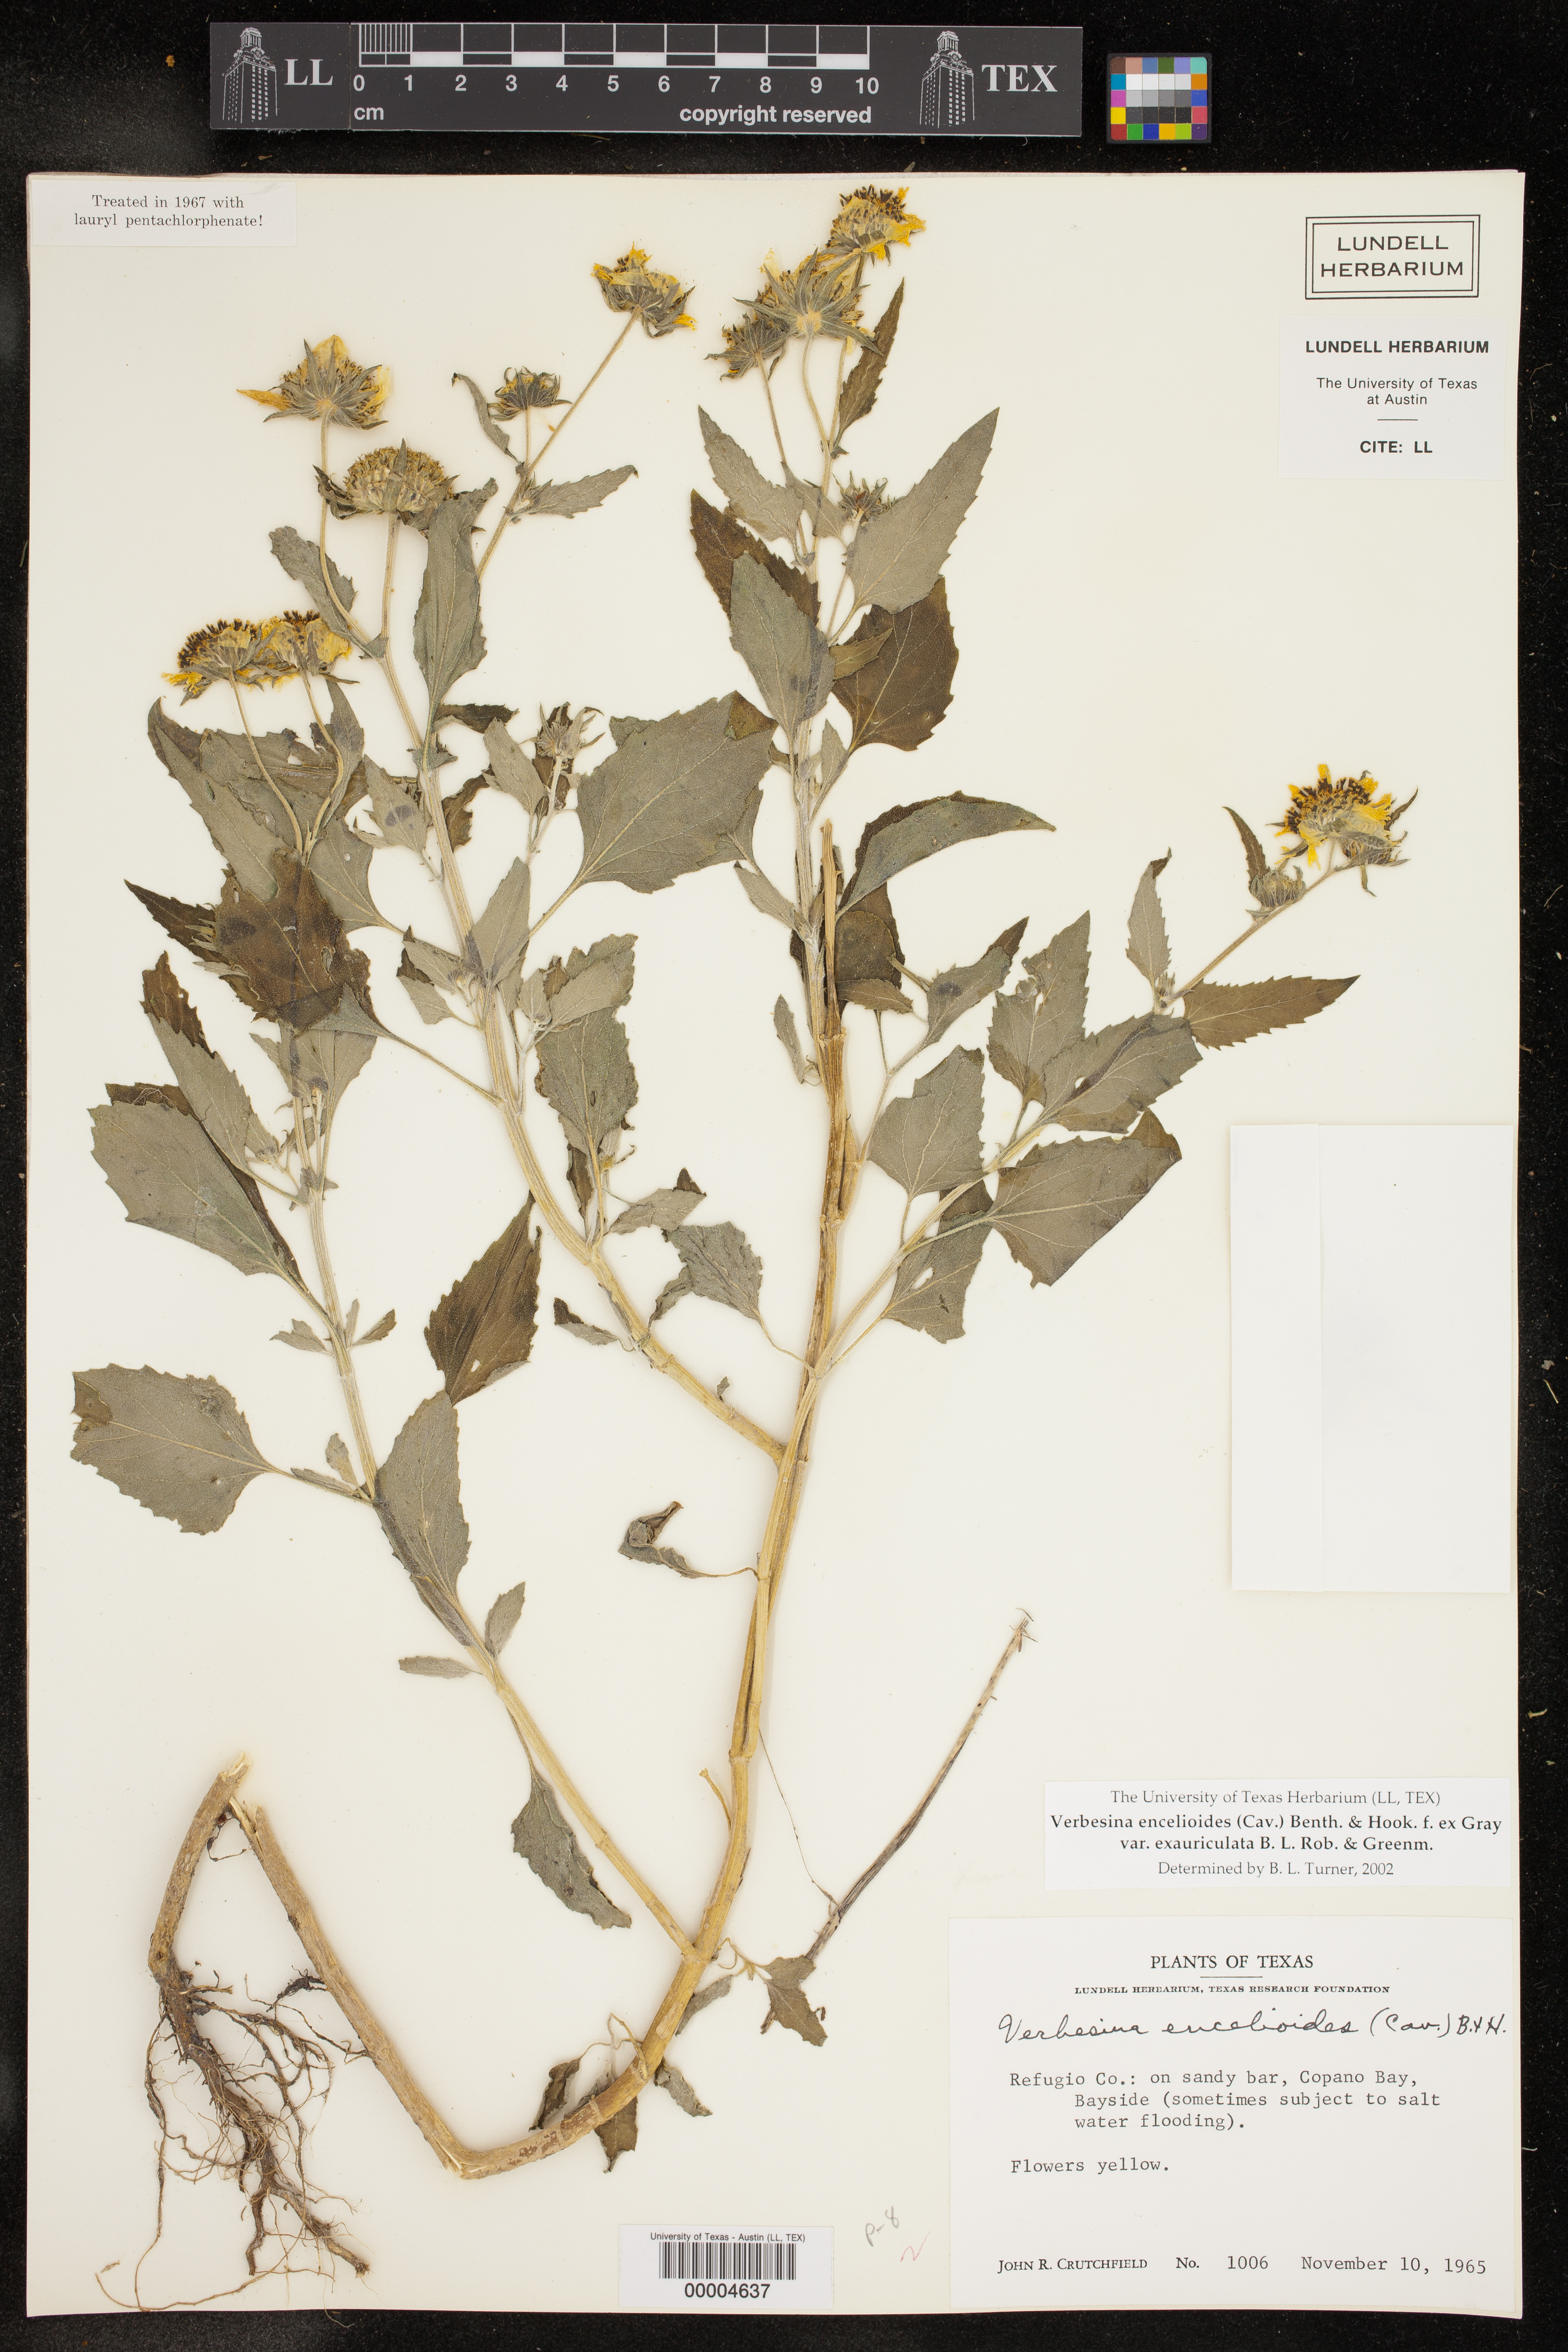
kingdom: Plantae
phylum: Tracheophyta
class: Magnoliopsida
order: Asterales
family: Asteraceae
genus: Verbesina
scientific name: Verbesina encelioides
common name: Golden crownbeard
